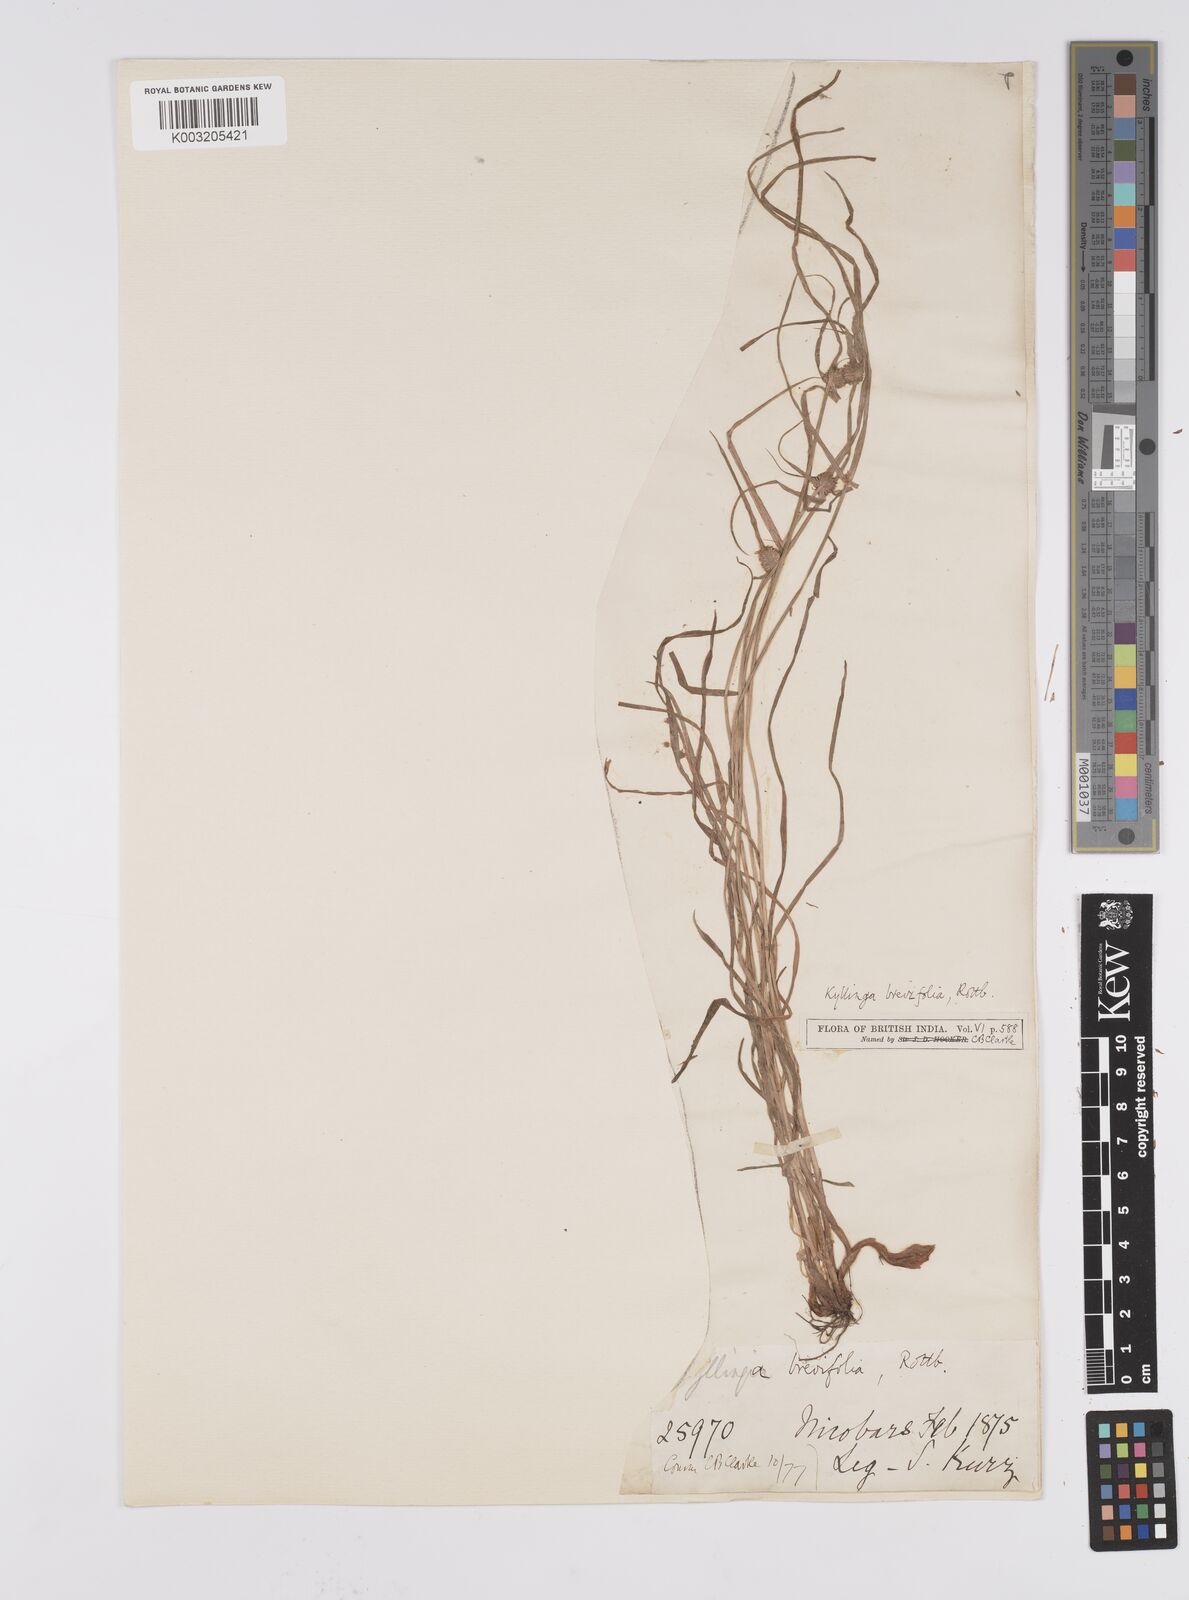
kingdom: Plantae
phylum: Tracheophyta
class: Liliopsida
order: Poales
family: Cyperaceae
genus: Cyperus
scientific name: Cyperus brevifolius
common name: Globe kyllinga
